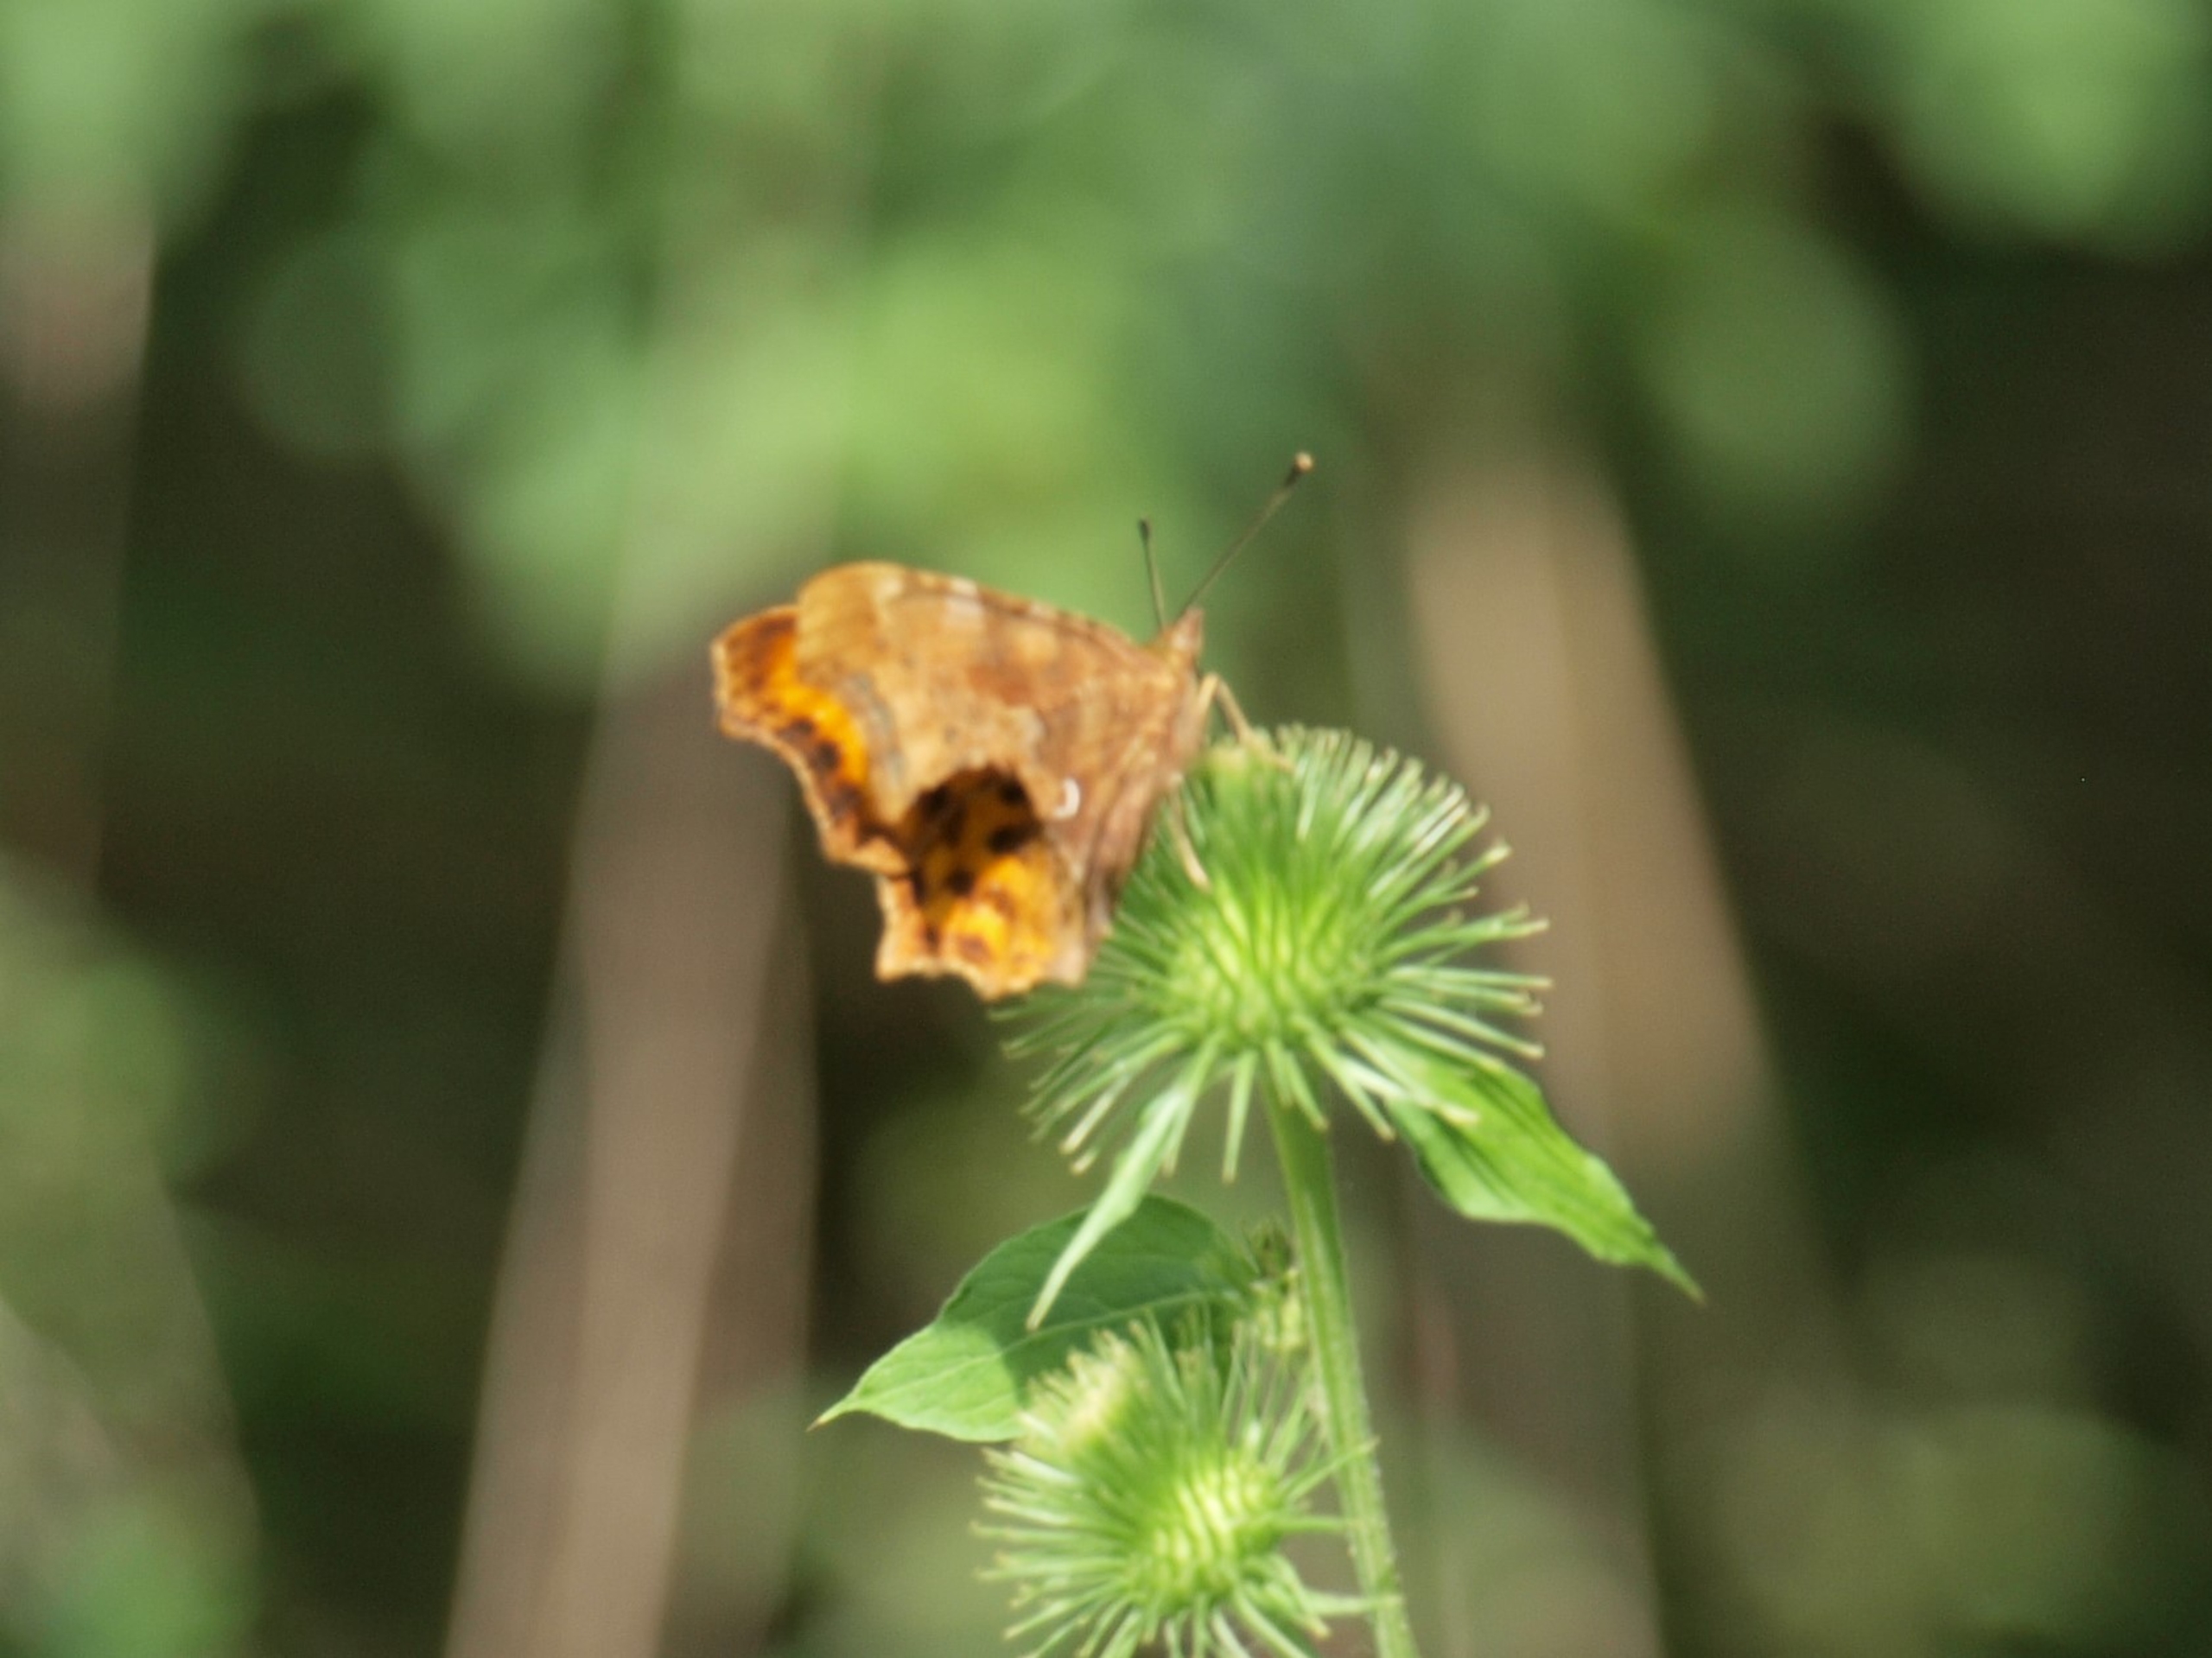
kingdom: Animalia
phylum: Arthropoda
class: Insecta
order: Lepidoptera
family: Nymphalidae
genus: Polygonia
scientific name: Polygonia c-album
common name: Det hvide C
